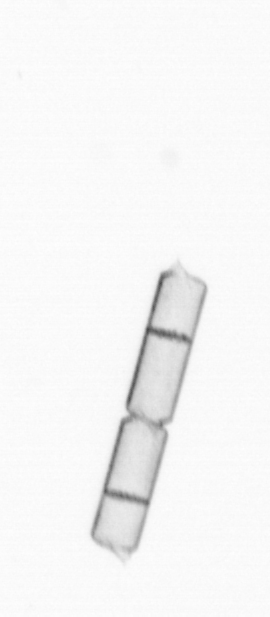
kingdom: Chromista
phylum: Ochrophyta
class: Bacillariophyceae
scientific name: Bacillariophyceae
